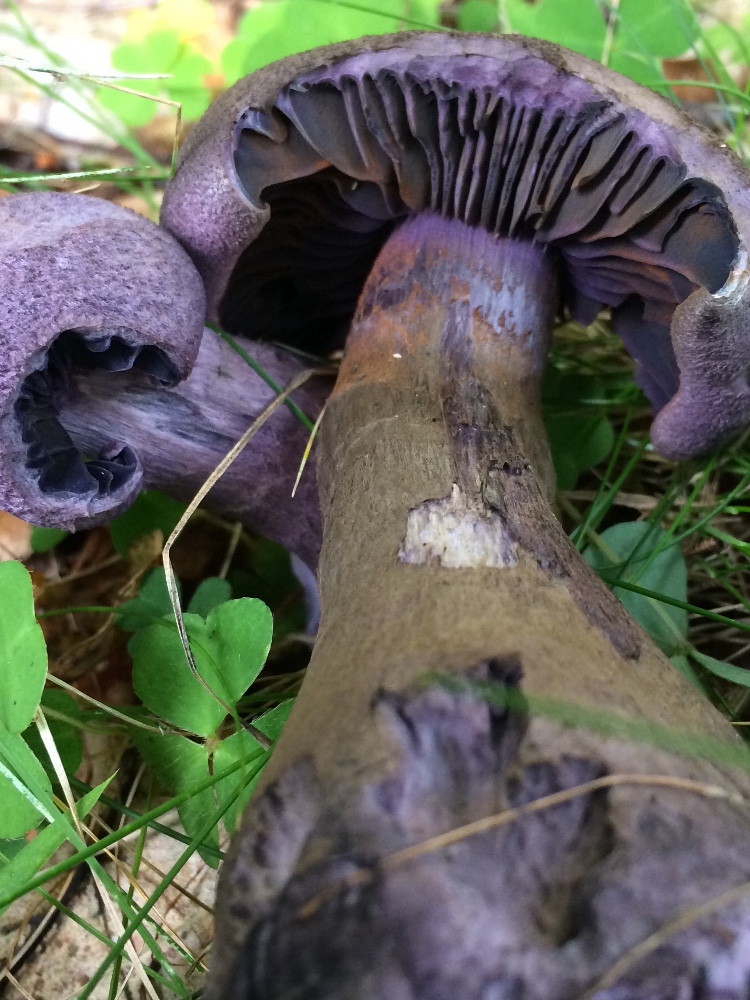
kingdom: Fungi
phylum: Basidiomycota
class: Agaricomycetes
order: Agaricales
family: Cortinariaceae
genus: Cortinarius
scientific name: Cortinarius violaceus
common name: mørkviolet slørhat
